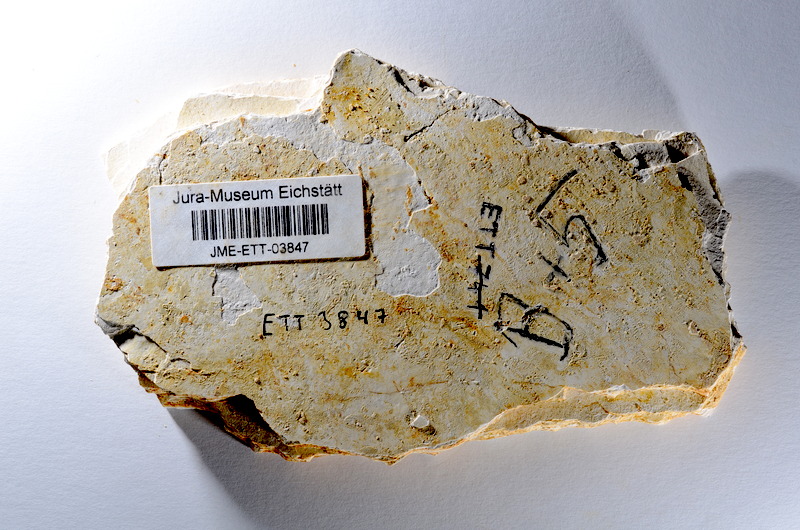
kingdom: Animalia
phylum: Chordata
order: Salmoniformes
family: Orthogonikleithridae
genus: Orthogonikleithrus
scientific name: Orthogonikleithrus hoelli
